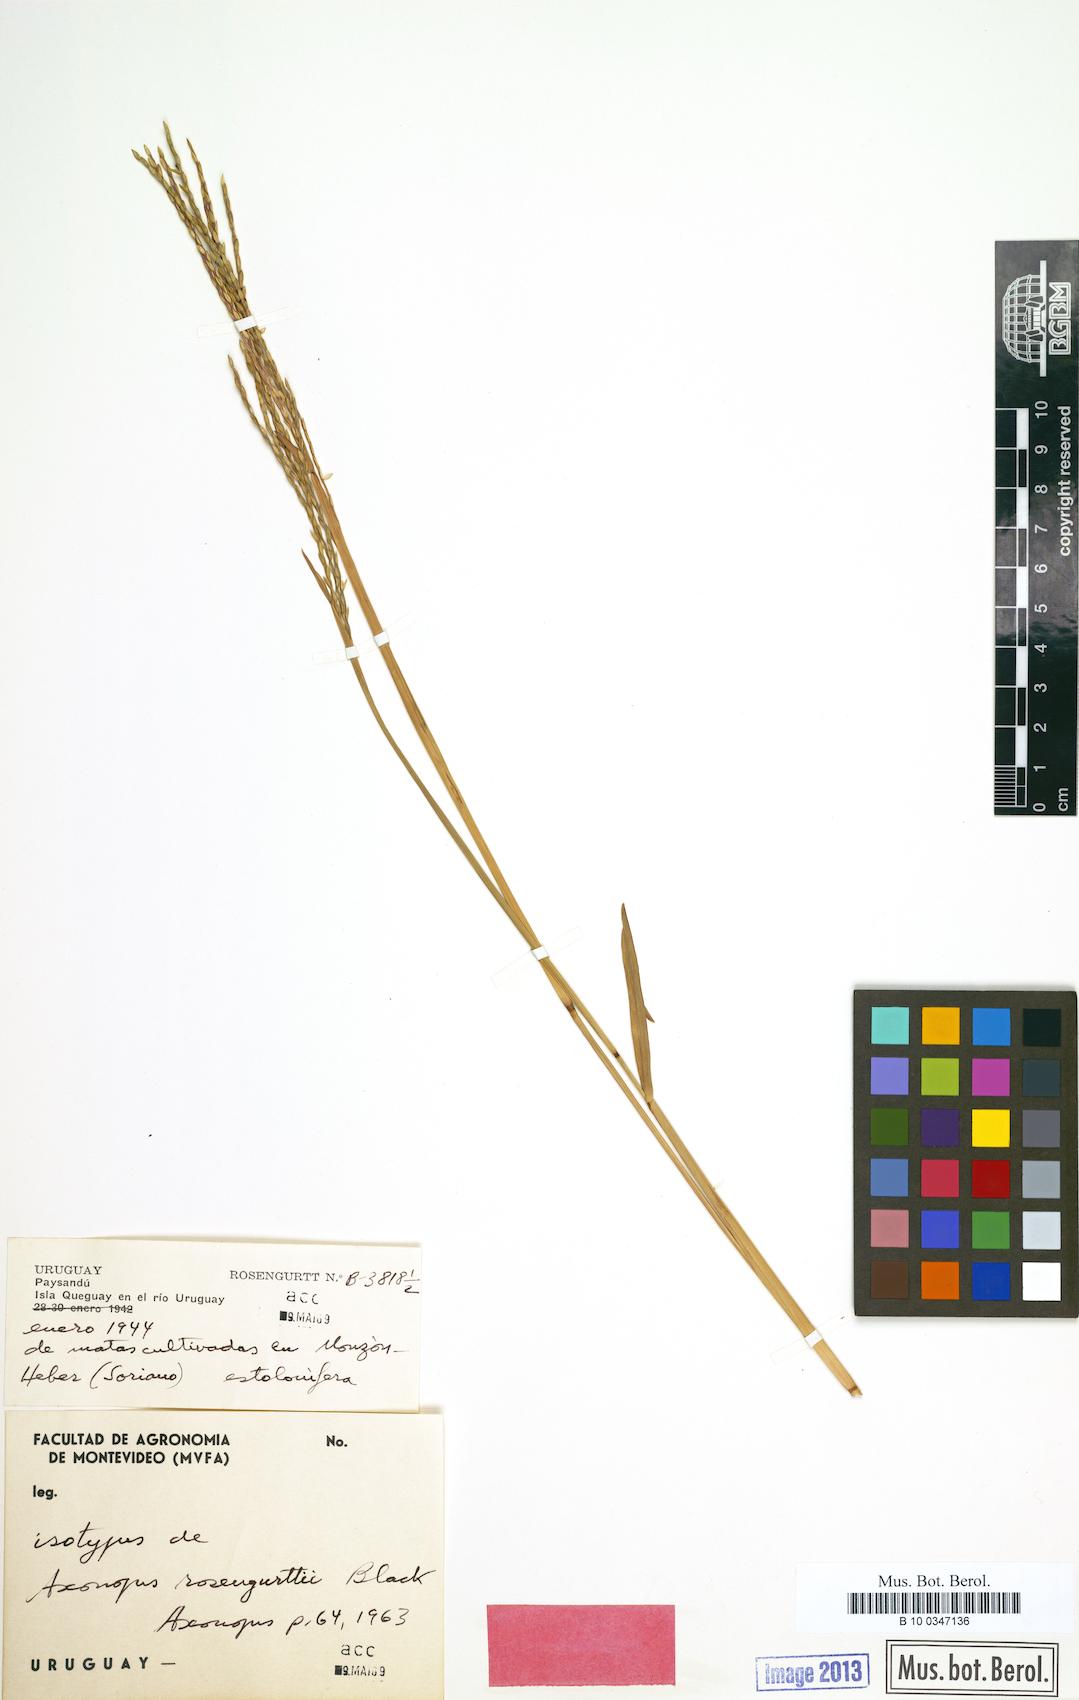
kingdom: Plantae
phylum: Tracheophyta
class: Liliopsida
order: Poales
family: Poaceae
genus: Axonopus
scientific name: Axonopus compressus
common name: American carpet grass
